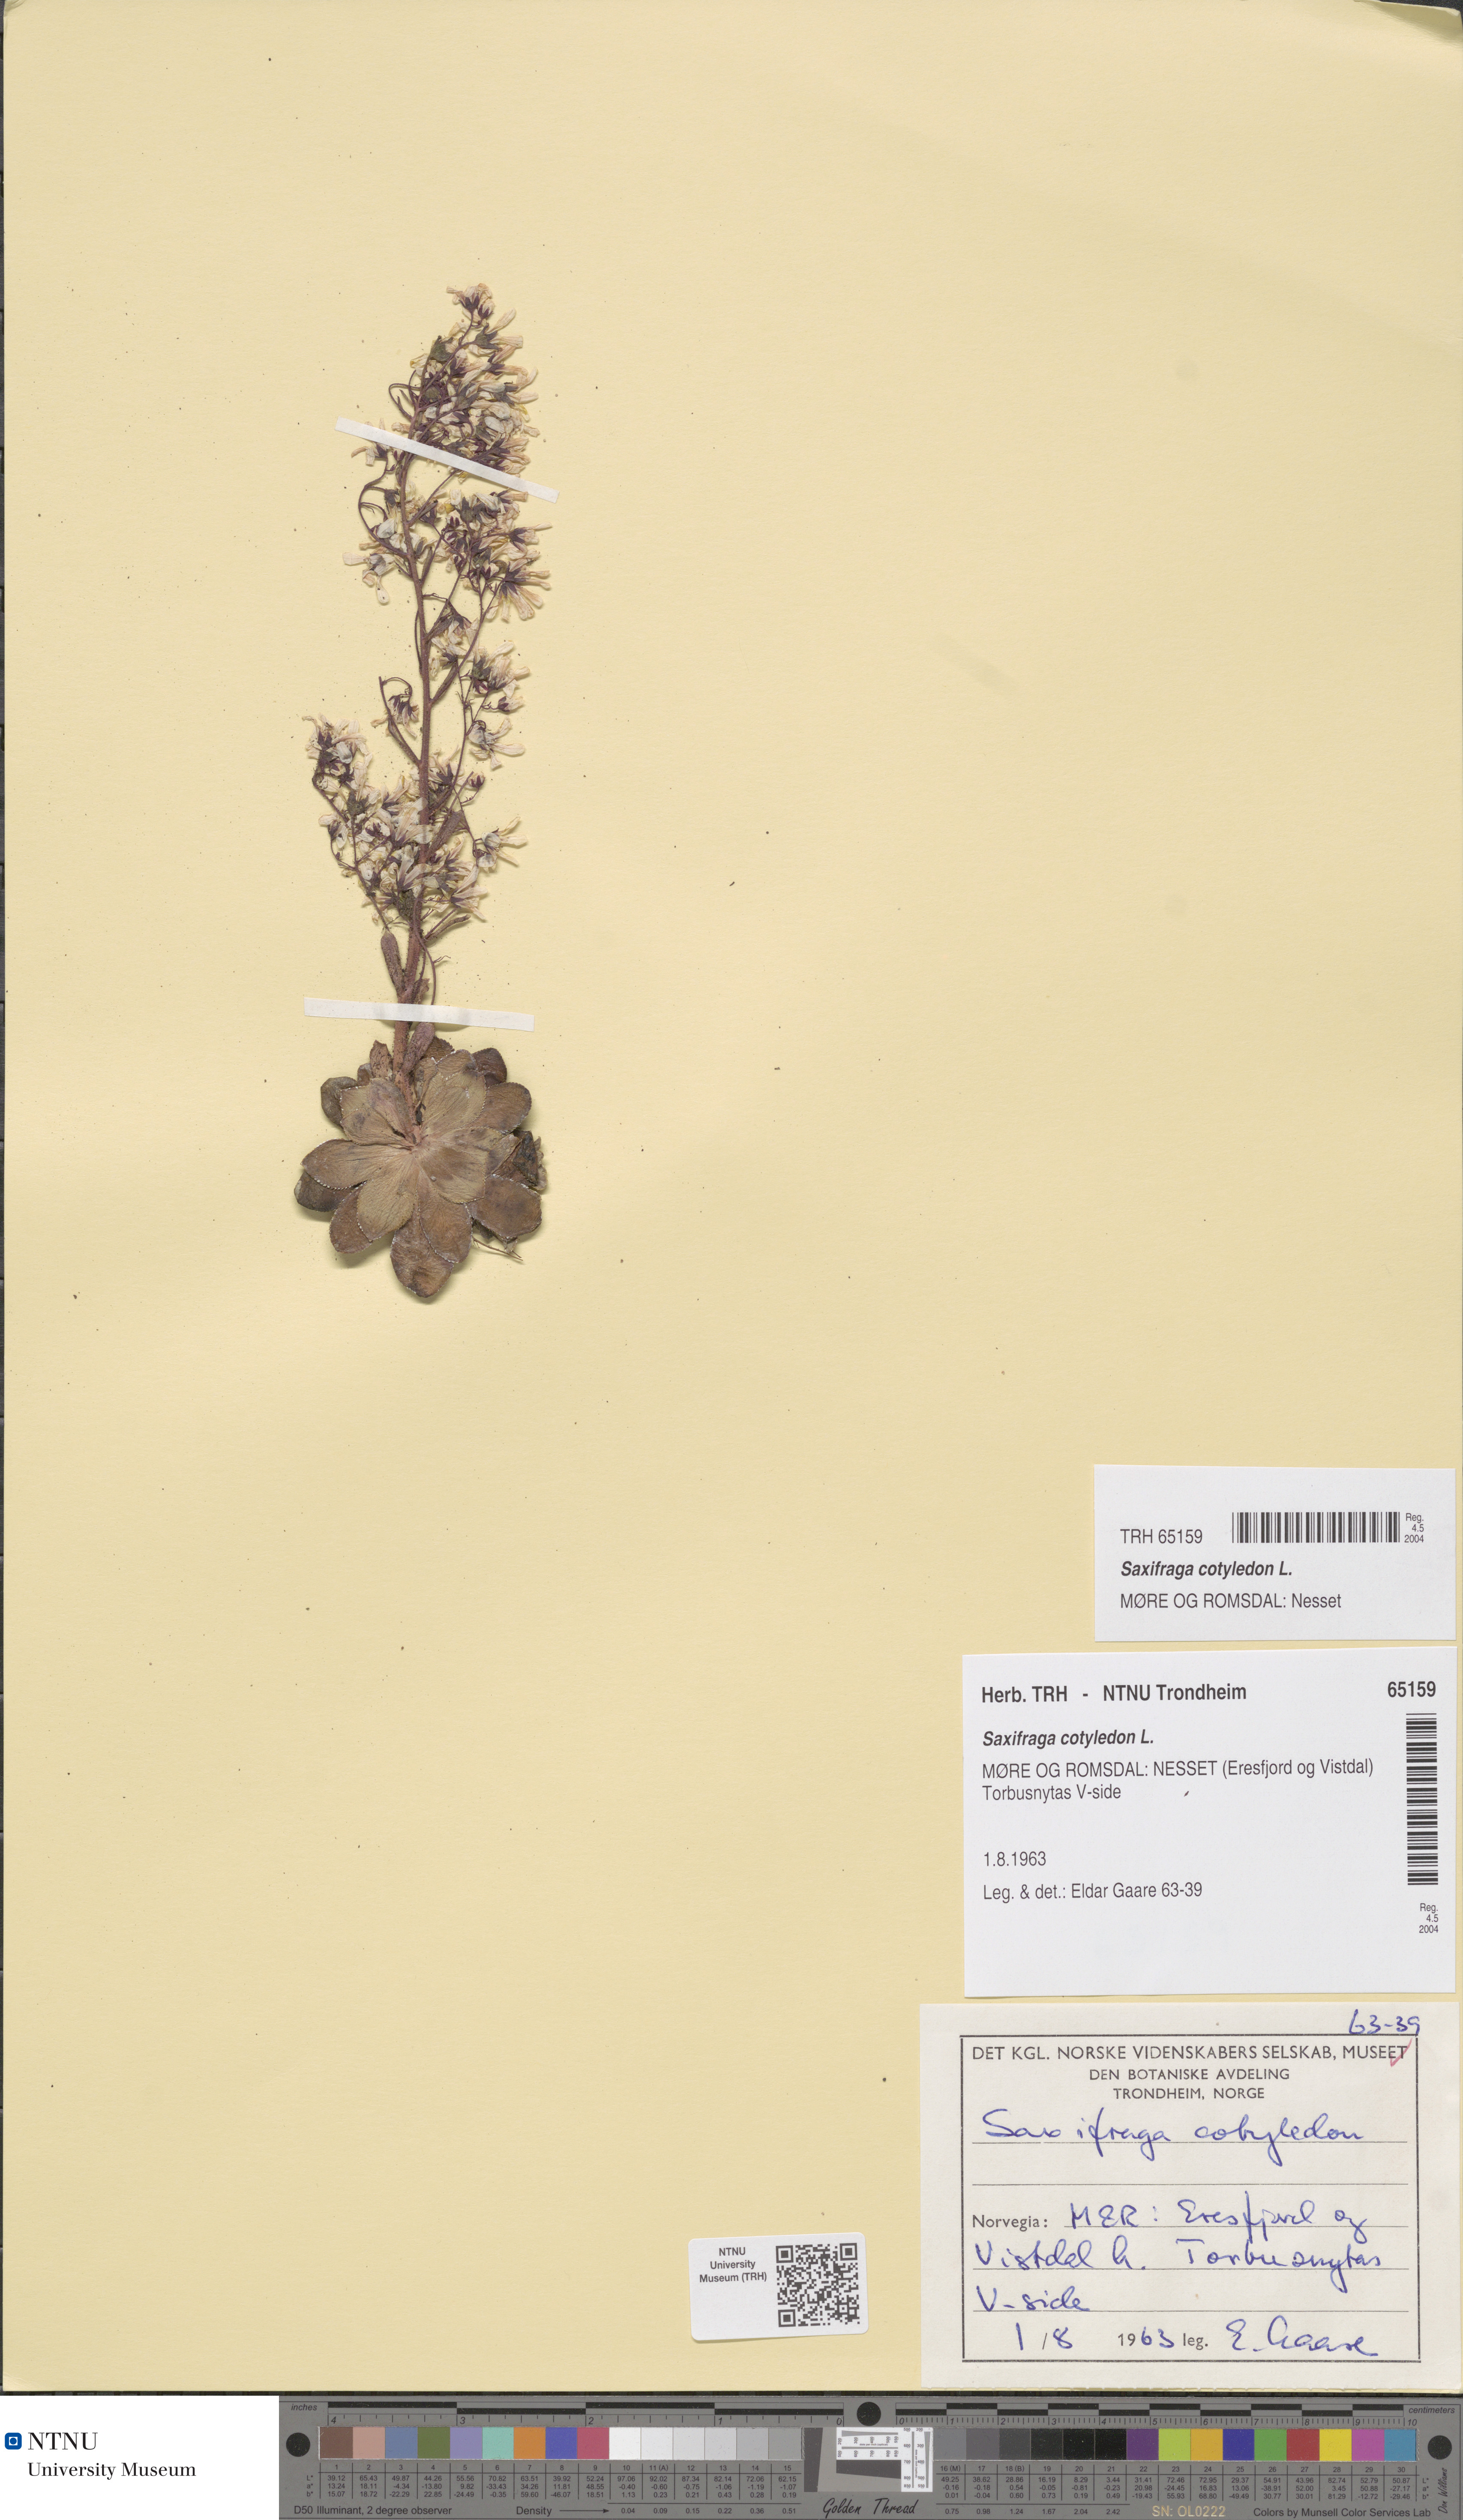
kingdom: Plantae
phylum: Tracheophyta
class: Magnoliopsida
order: Saxifragales
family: Saxifragaceae
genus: Saxifraga
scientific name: Saxifraga cotyledon
